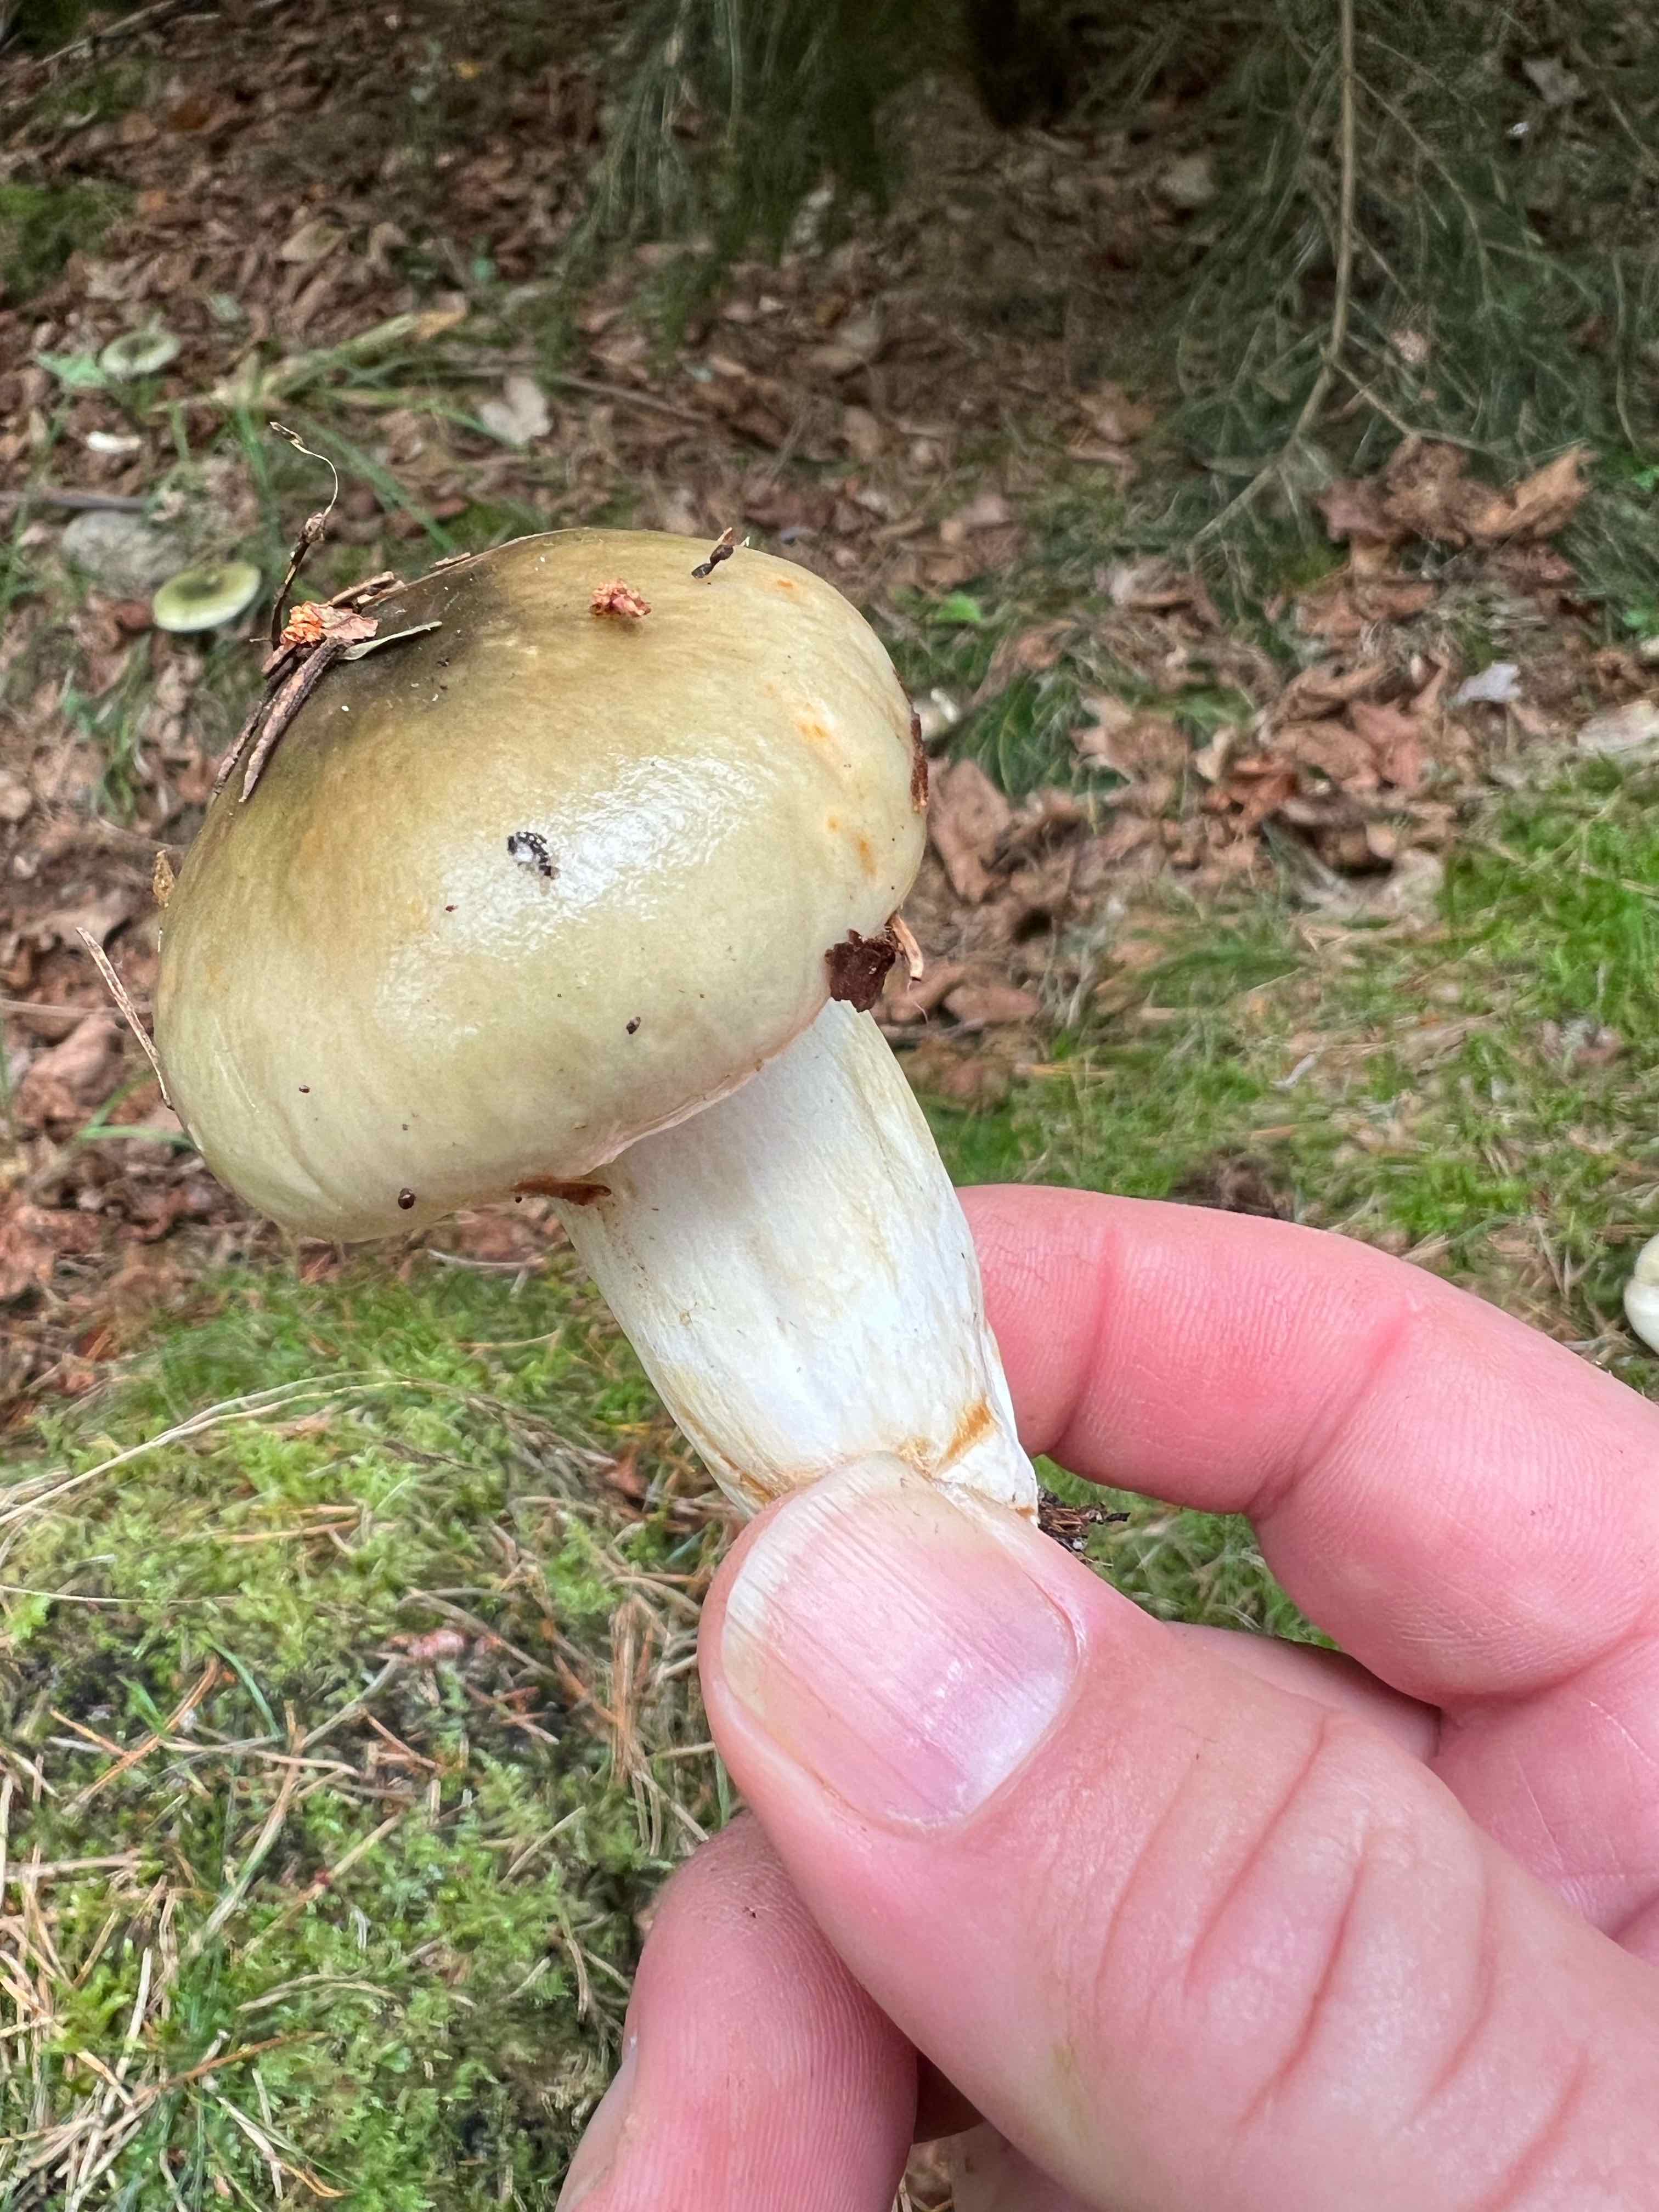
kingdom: Fungi
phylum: Basidiomycota
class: Agaricomycetes
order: Russulales
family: Russulaceae
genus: Russula
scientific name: Russula aeruginea
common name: græsgrøn skørhat
